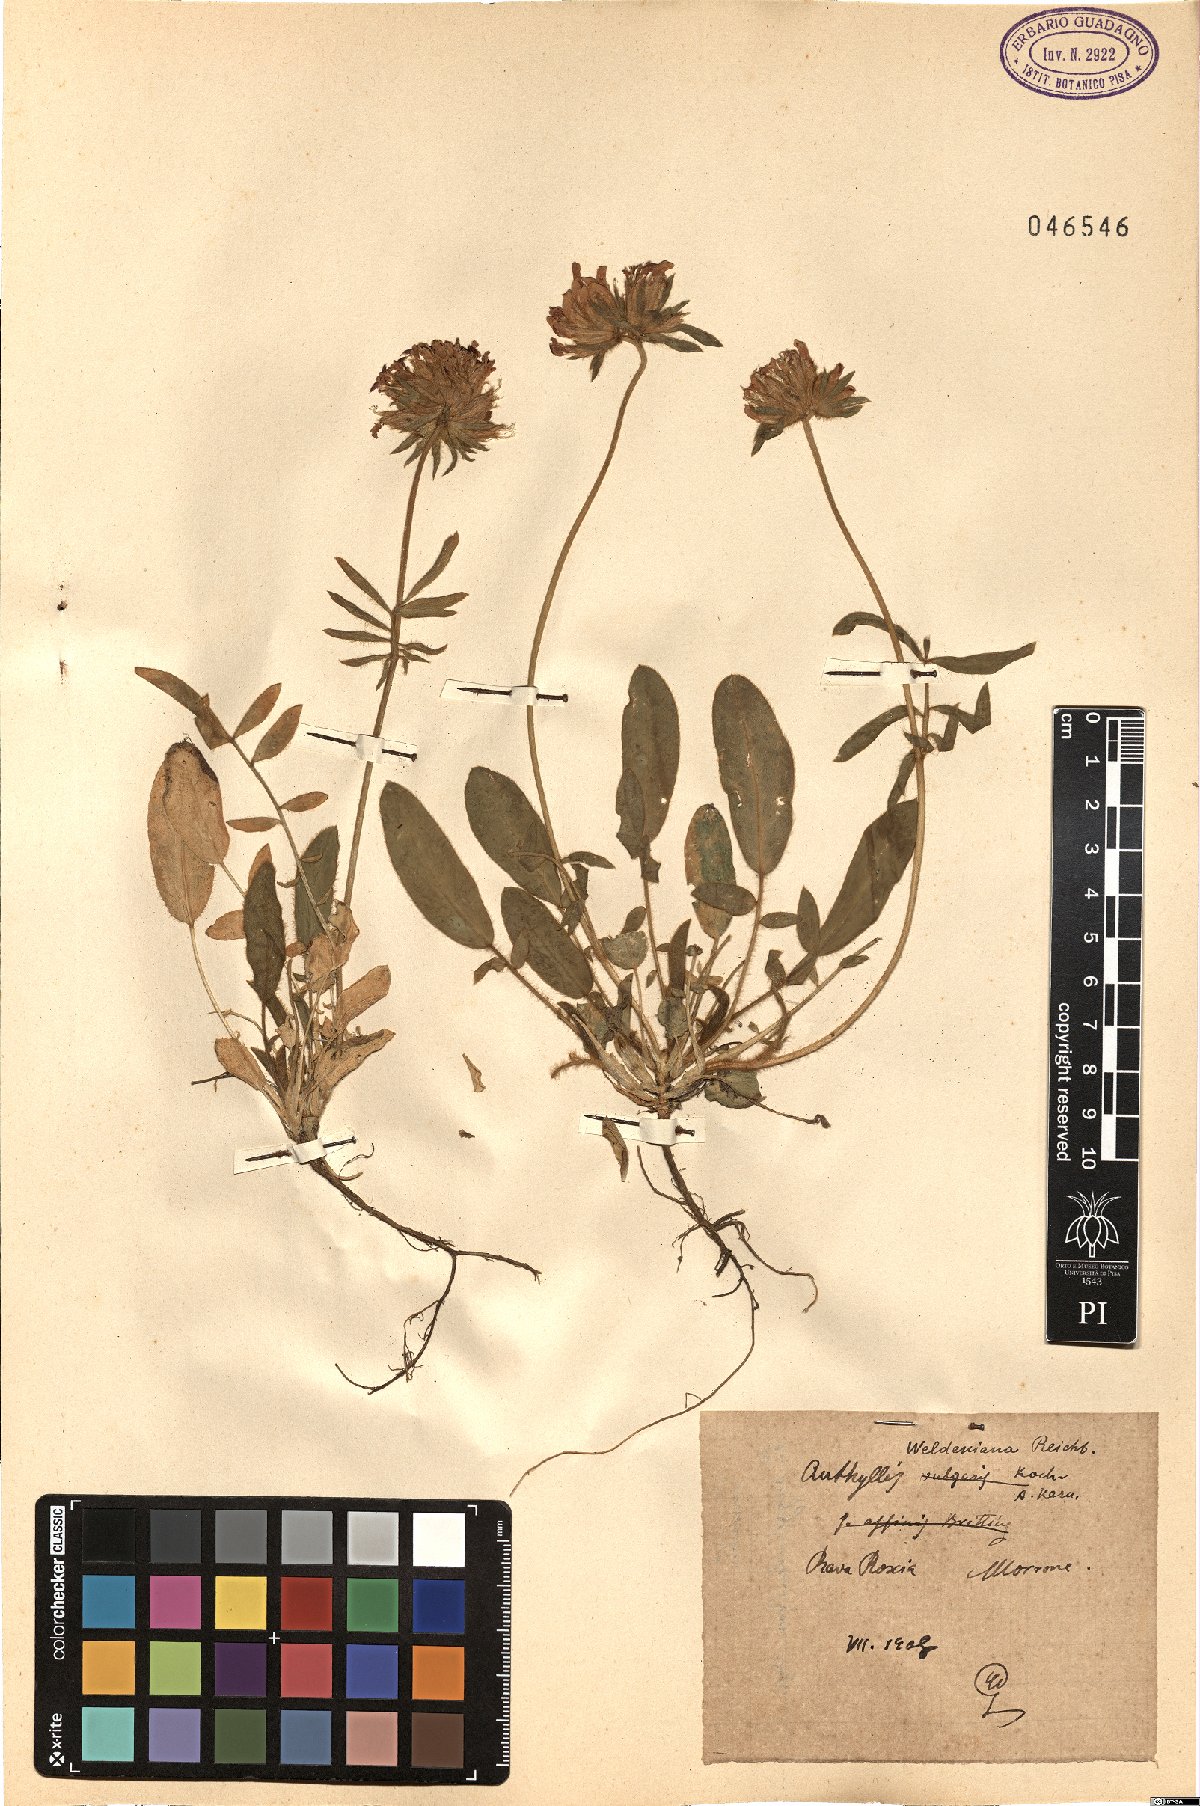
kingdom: Plantae
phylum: Tracheophyta
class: Magnoliopsida
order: Fabales
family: Fabaceae
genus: Anthyllis
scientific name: Anthyllis vulneraria
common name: Kidney vetch
